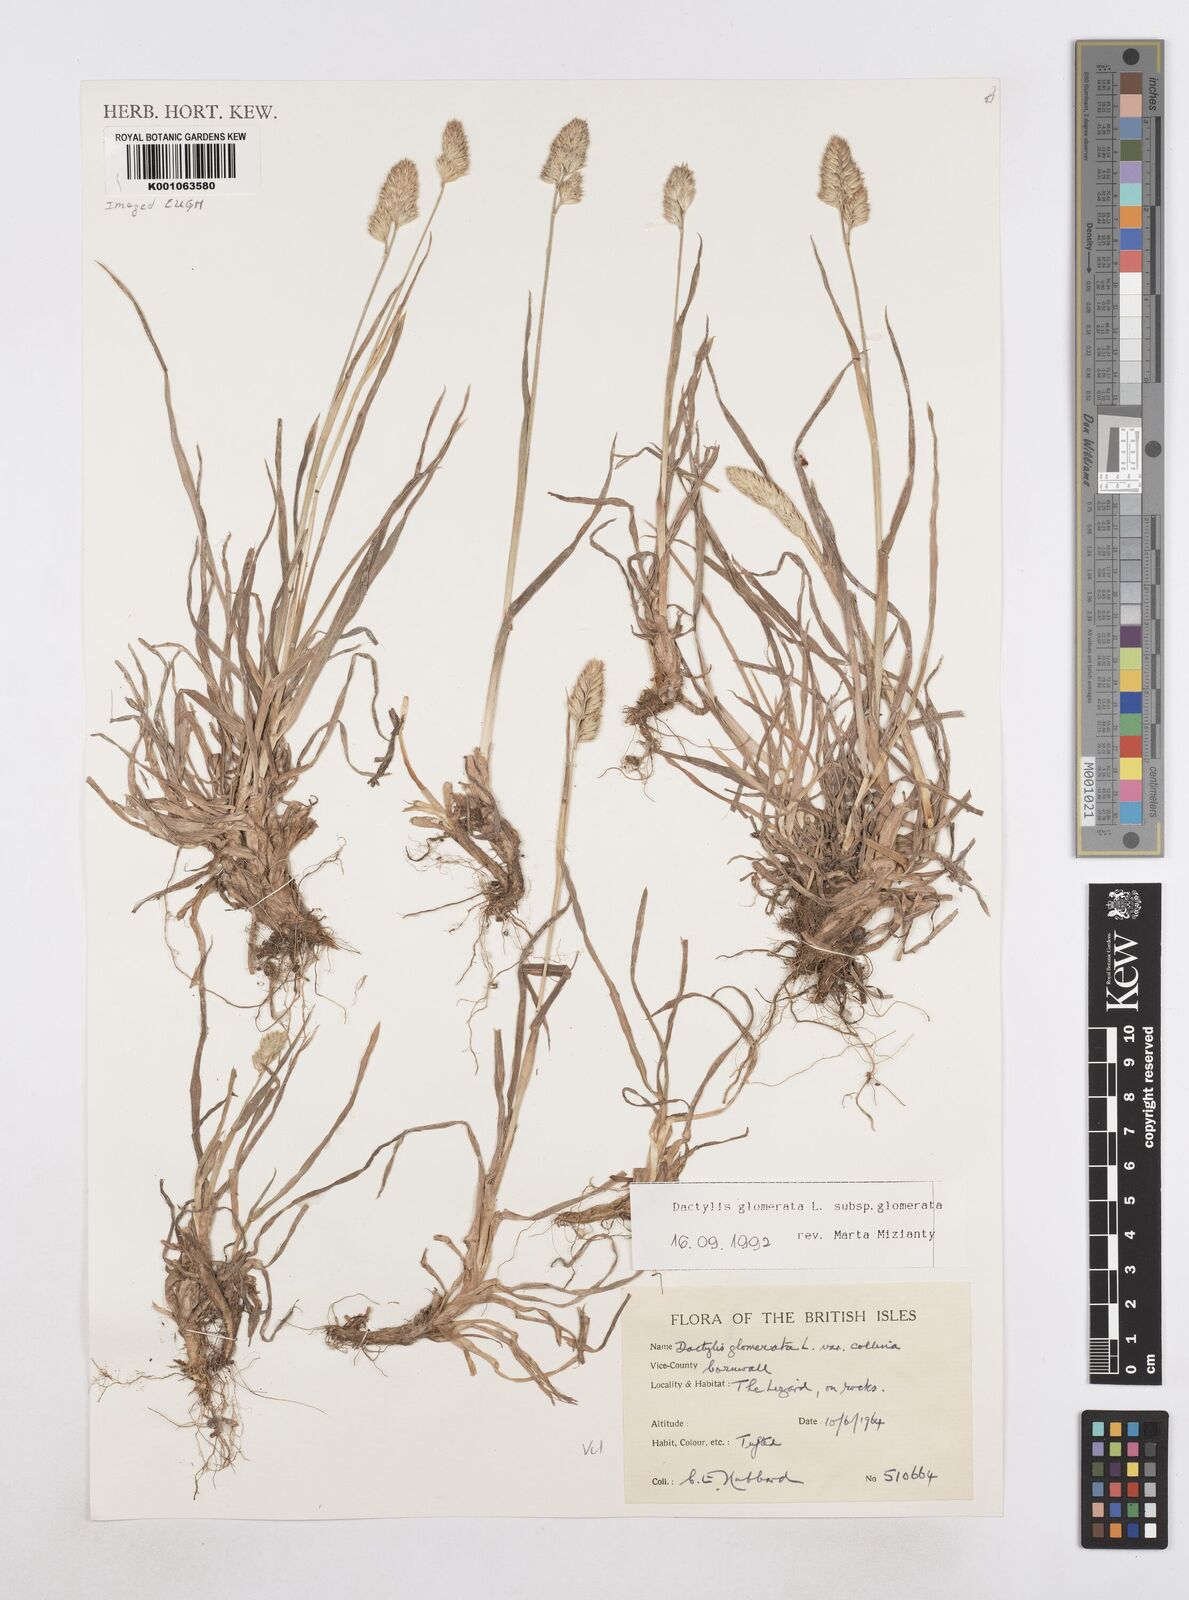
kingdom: Plantae
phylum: Tracheophyta
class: Liliopsida
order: Poales
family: Poaceae
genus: Dactylis
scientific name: Dactylis glomerata
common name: Orchardgrass
